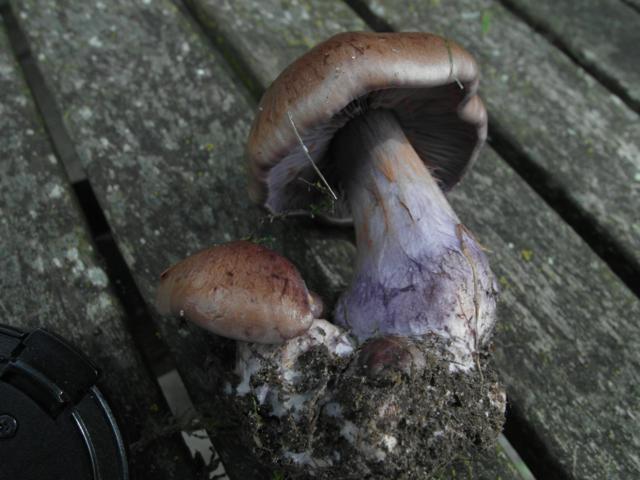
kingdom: Fungi
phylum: Basidiomycota
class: Agaricomycetes
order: Agaricales
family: Cortinariaceae
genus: Thaxterogaster
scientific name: Thaxterogaster purpurascens
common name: purpurbrun slørhat
